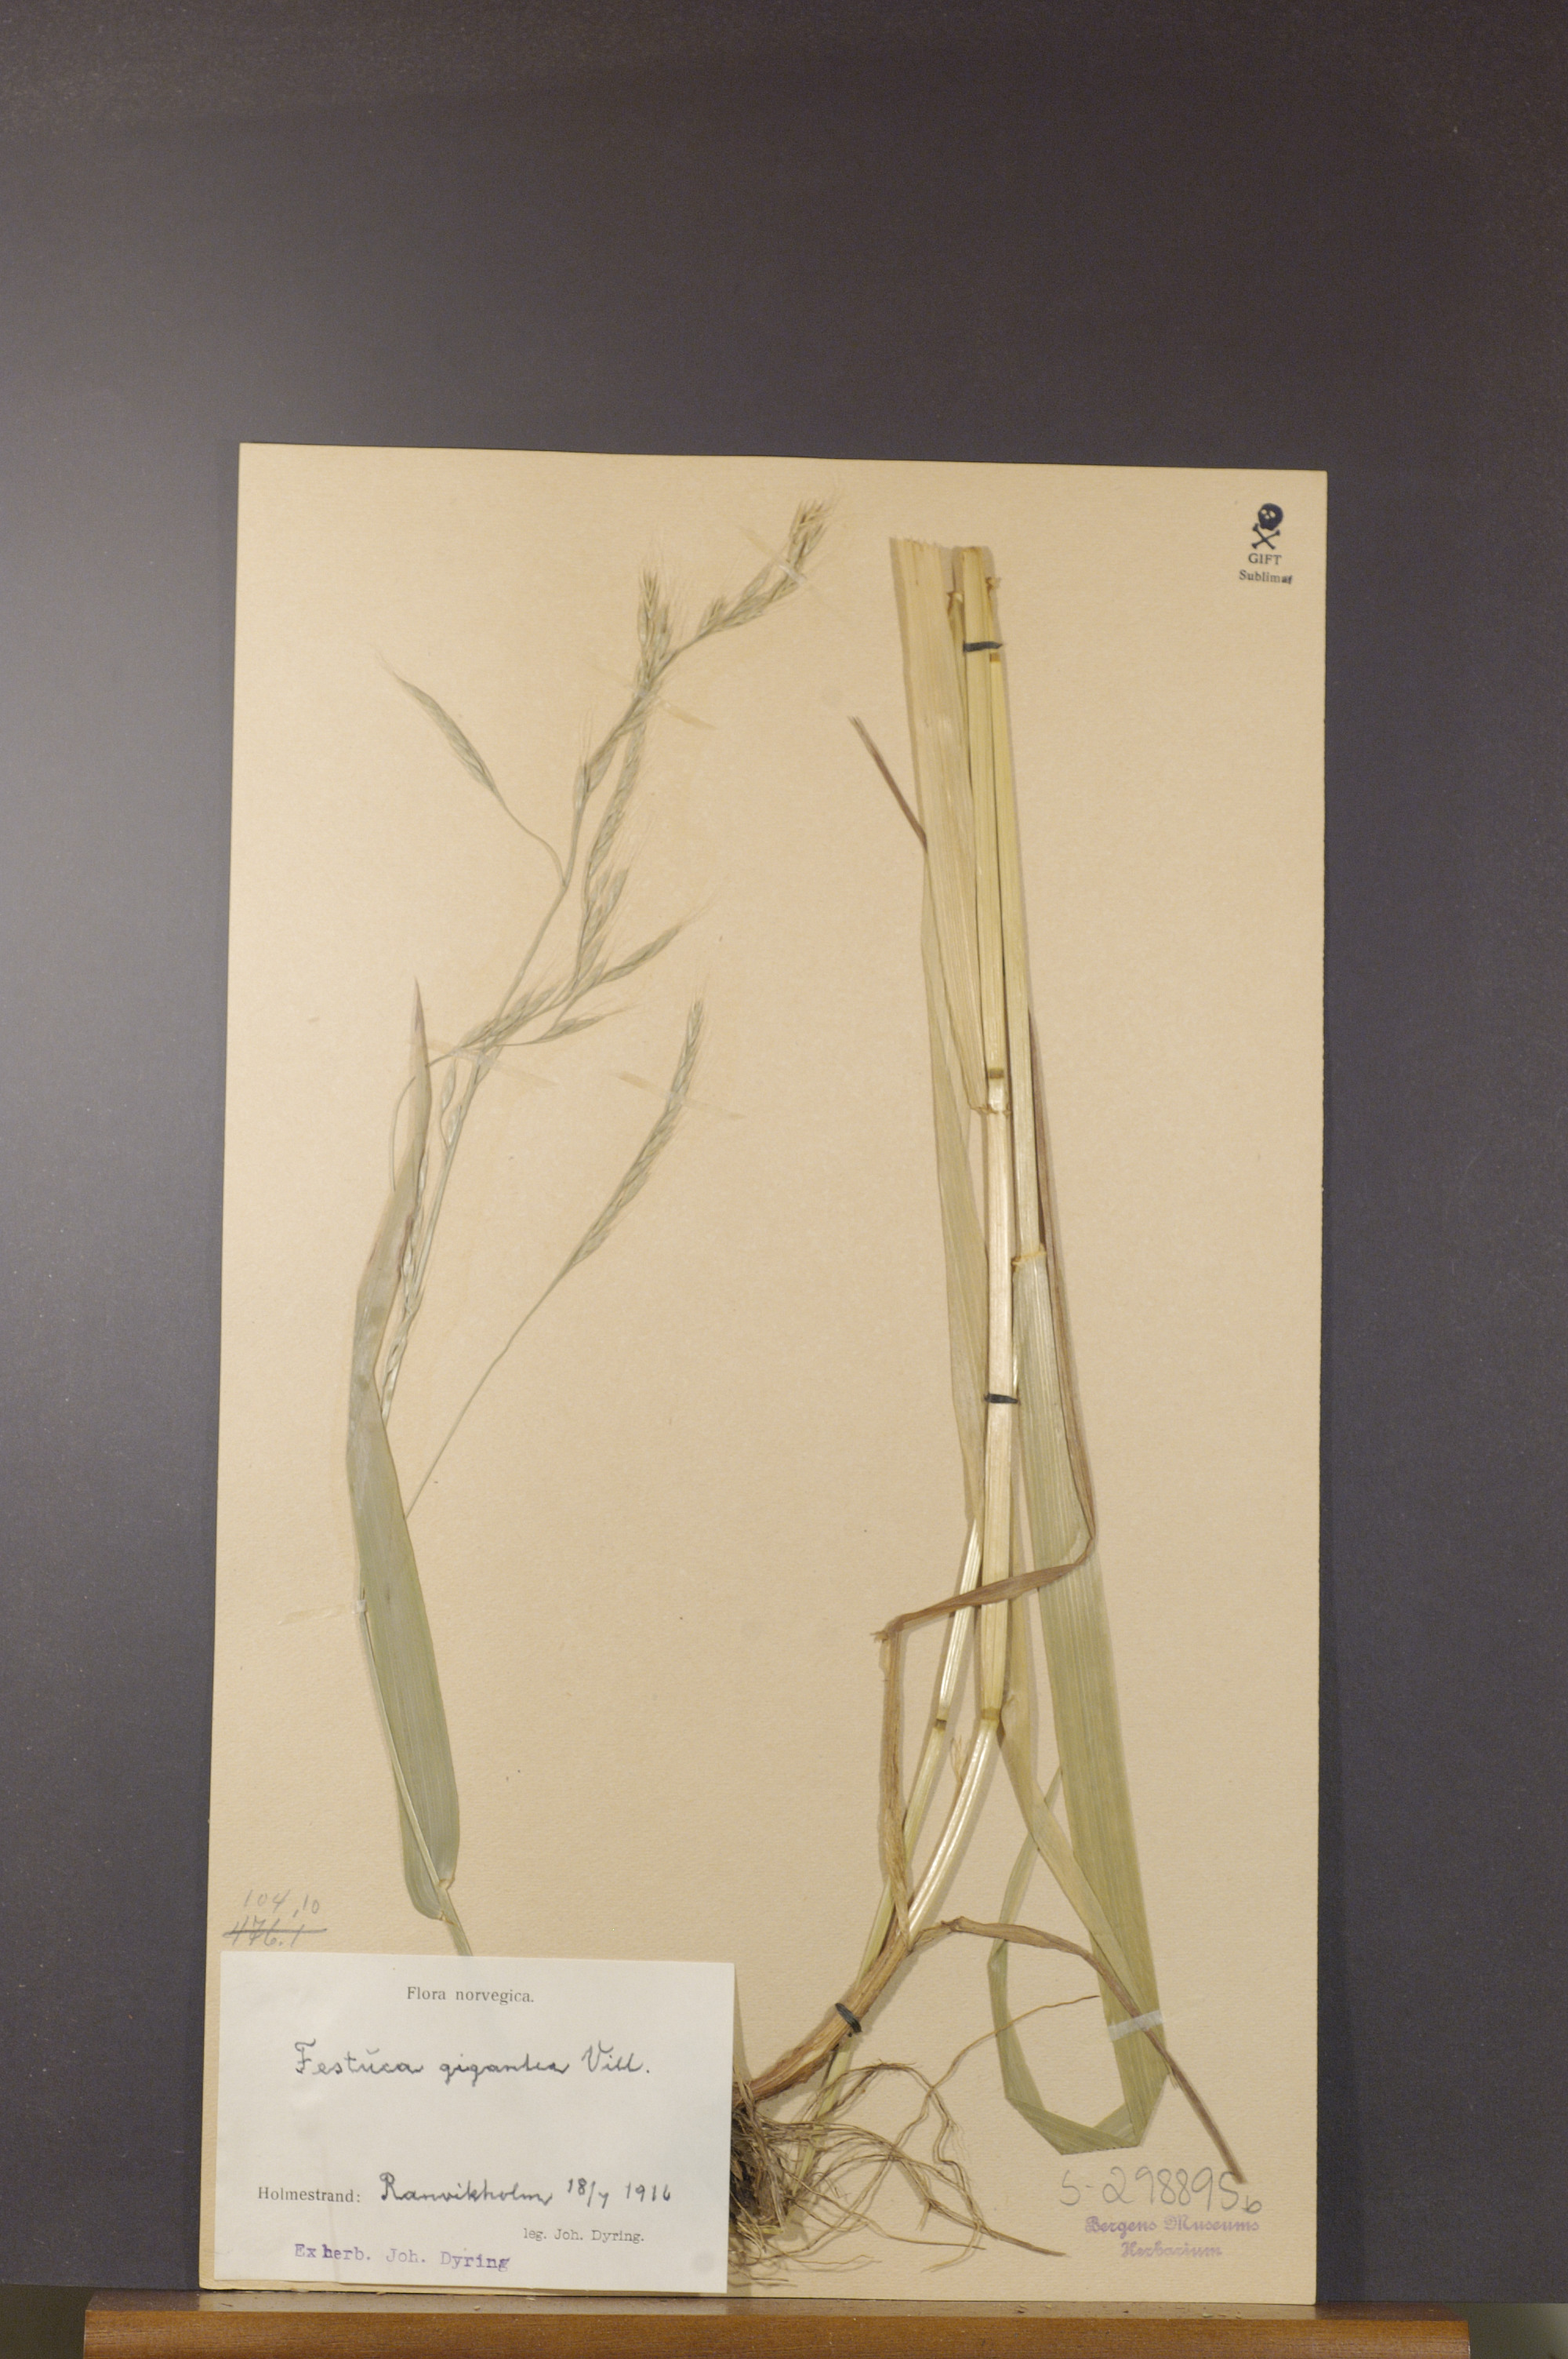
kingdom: Plantae
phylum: Tracheophyta
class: Liliopsida
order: Poales
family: Poaceae
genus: Lolium
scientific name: Lolium giganteum
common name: Giant fescue
